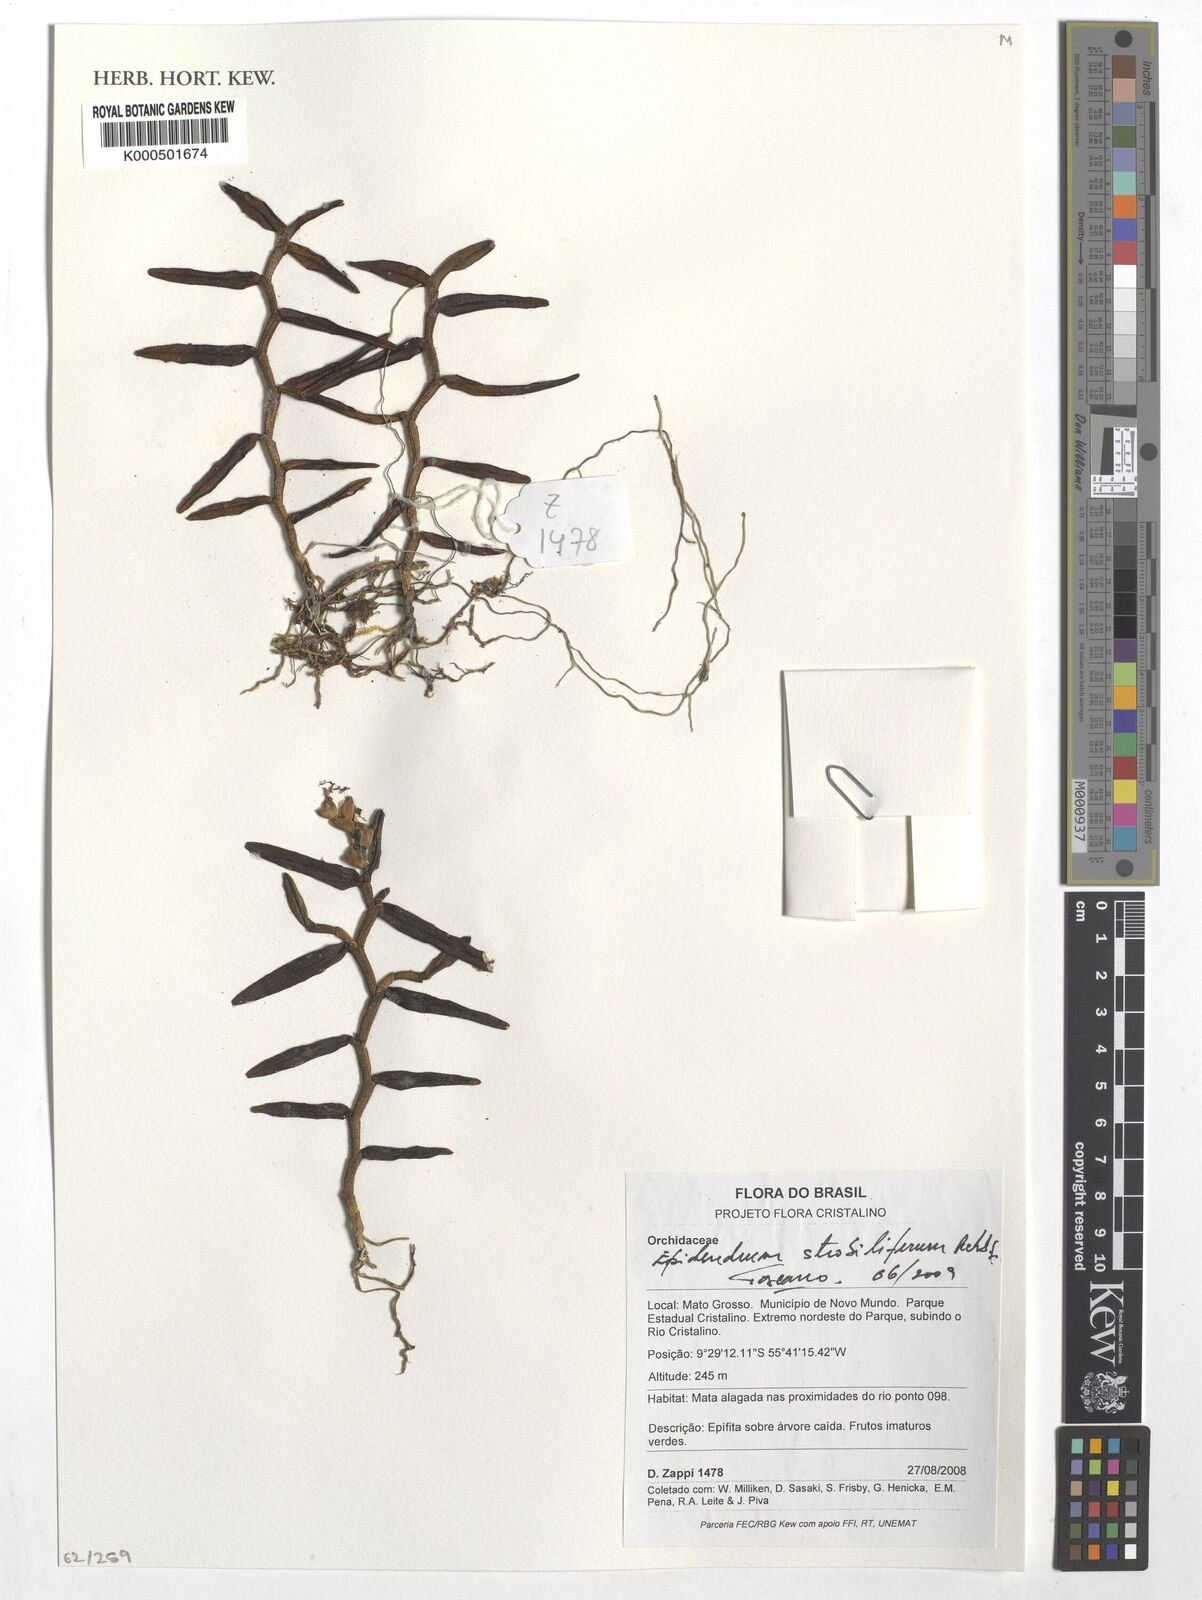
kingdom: Plantae
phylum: Tracheophyta
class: Liliopsida
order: Asparagales
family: Orchidaceae
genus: Epidendrum
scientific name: Epidendrum strobiliferum
